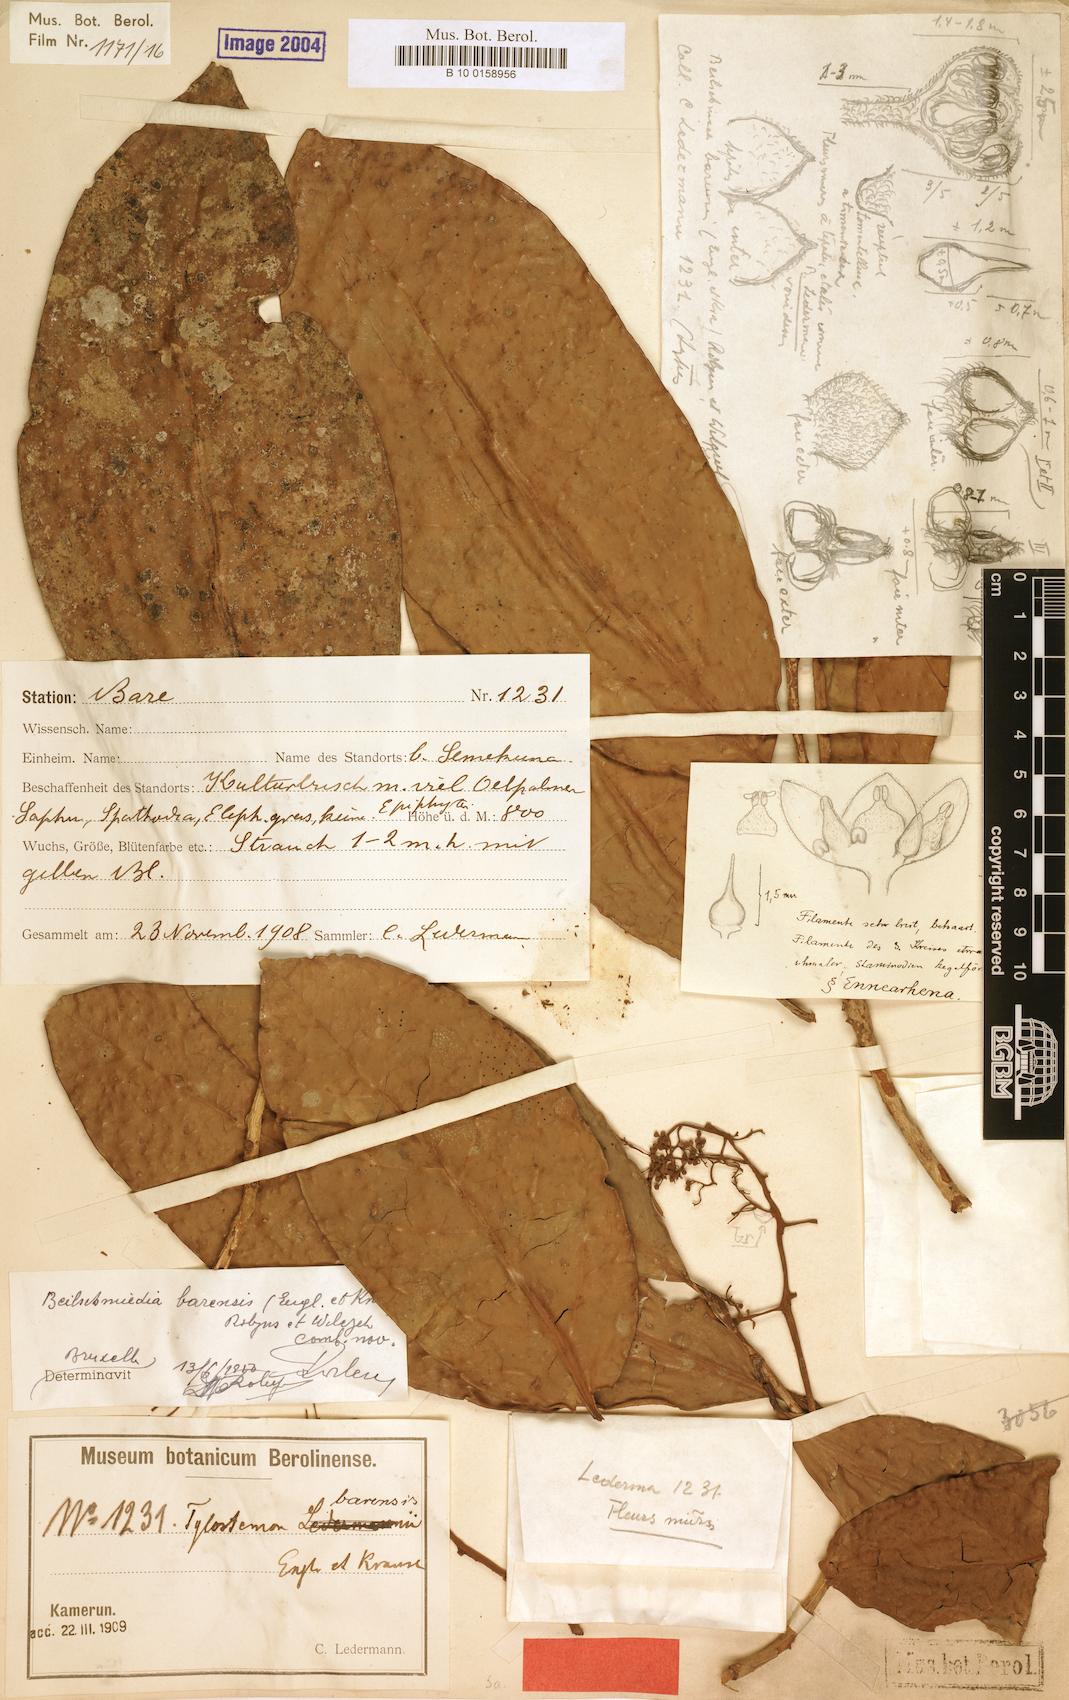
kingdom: Plantae
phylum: Tracheophyta
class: Magnoliopsida
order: Laurales
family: Lauraceae
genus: Beilschmiedia
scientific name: Beilschmiedia barensis
